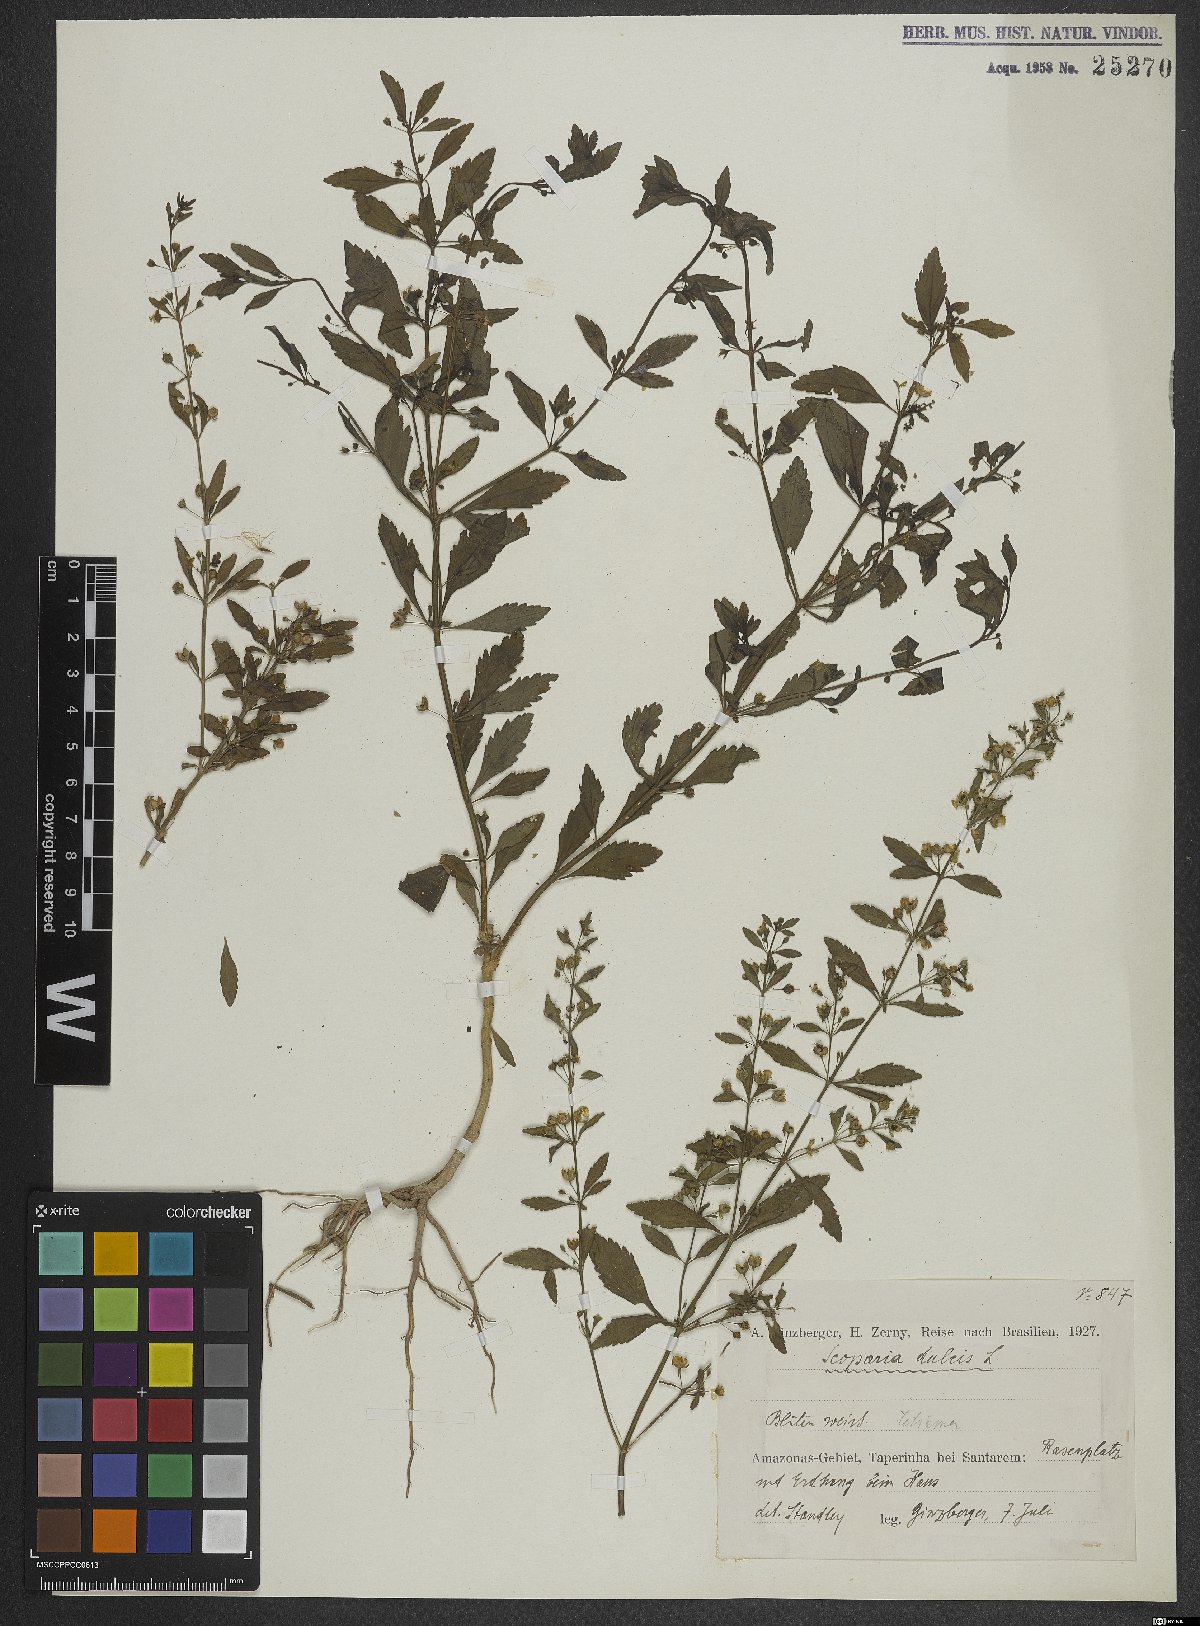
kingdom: Plantae
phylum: Tracheophyta
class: Magnoliopsida
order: Lamiales
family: Plantaginaceae
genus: Scoparia
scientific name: Scoparia dulcis
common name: Scoparia-weed
